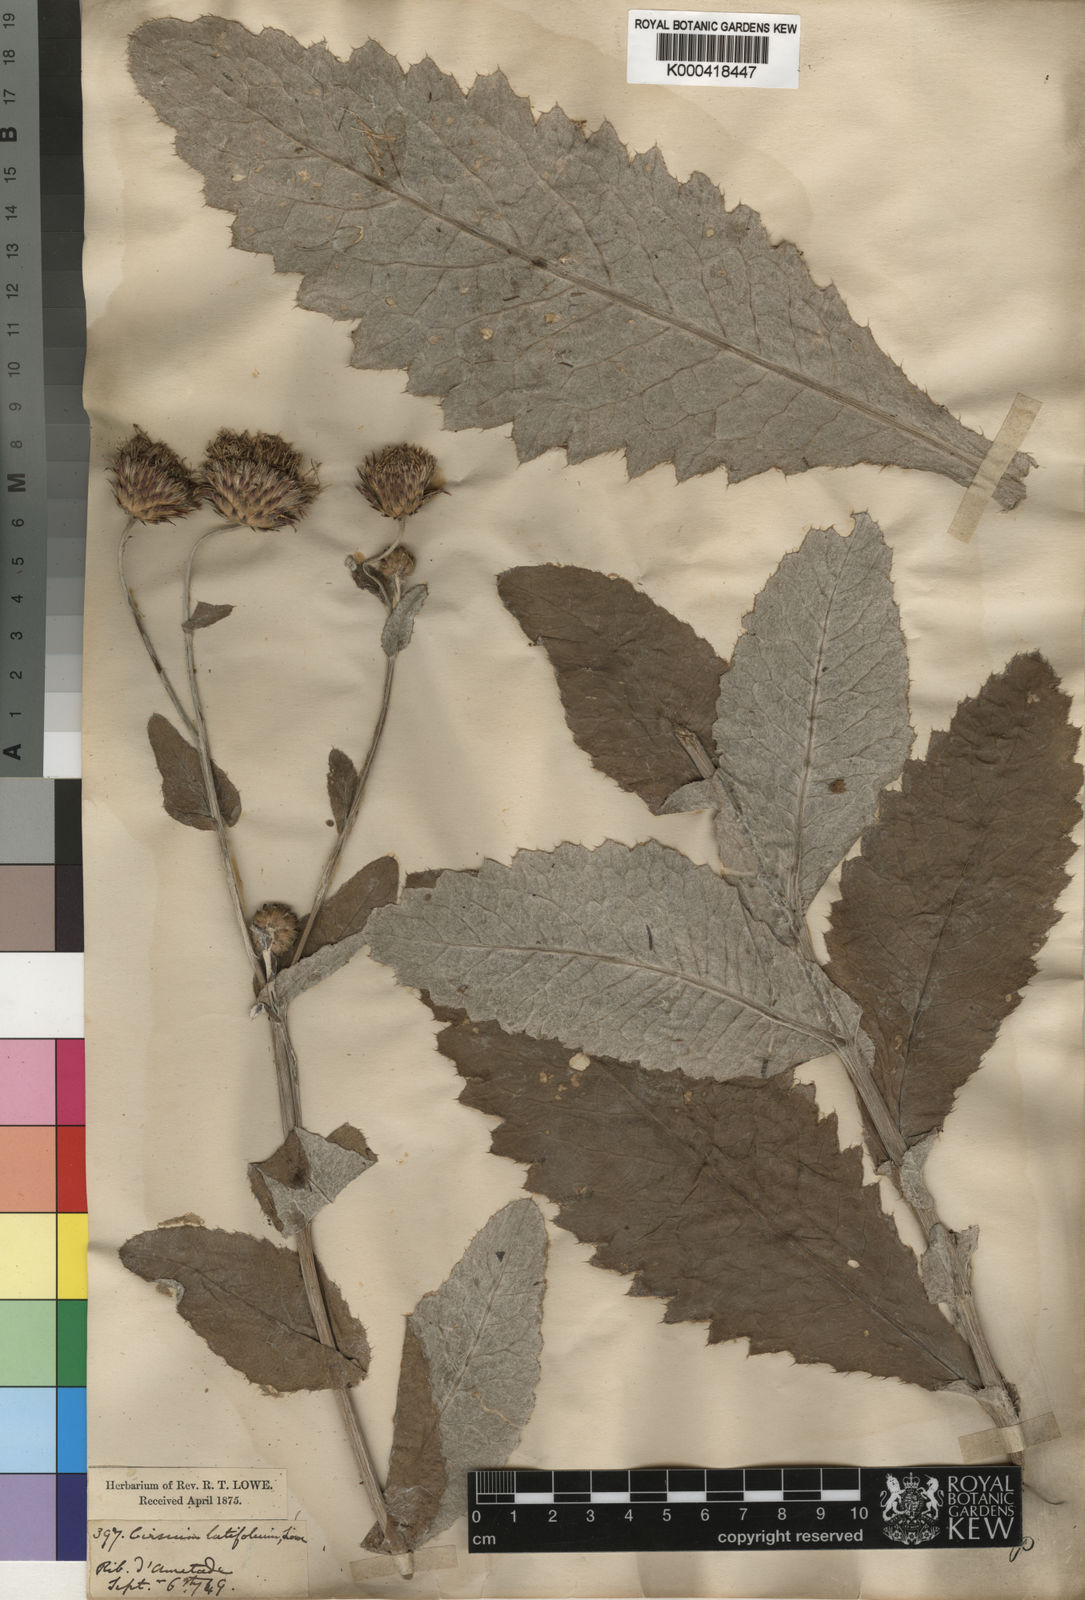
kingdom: Plantae
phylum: Tracheophyta
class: Magnoliopsida
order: Asterales
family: Asteraceae
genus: Cirsium
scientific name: Cirsium latifolium
